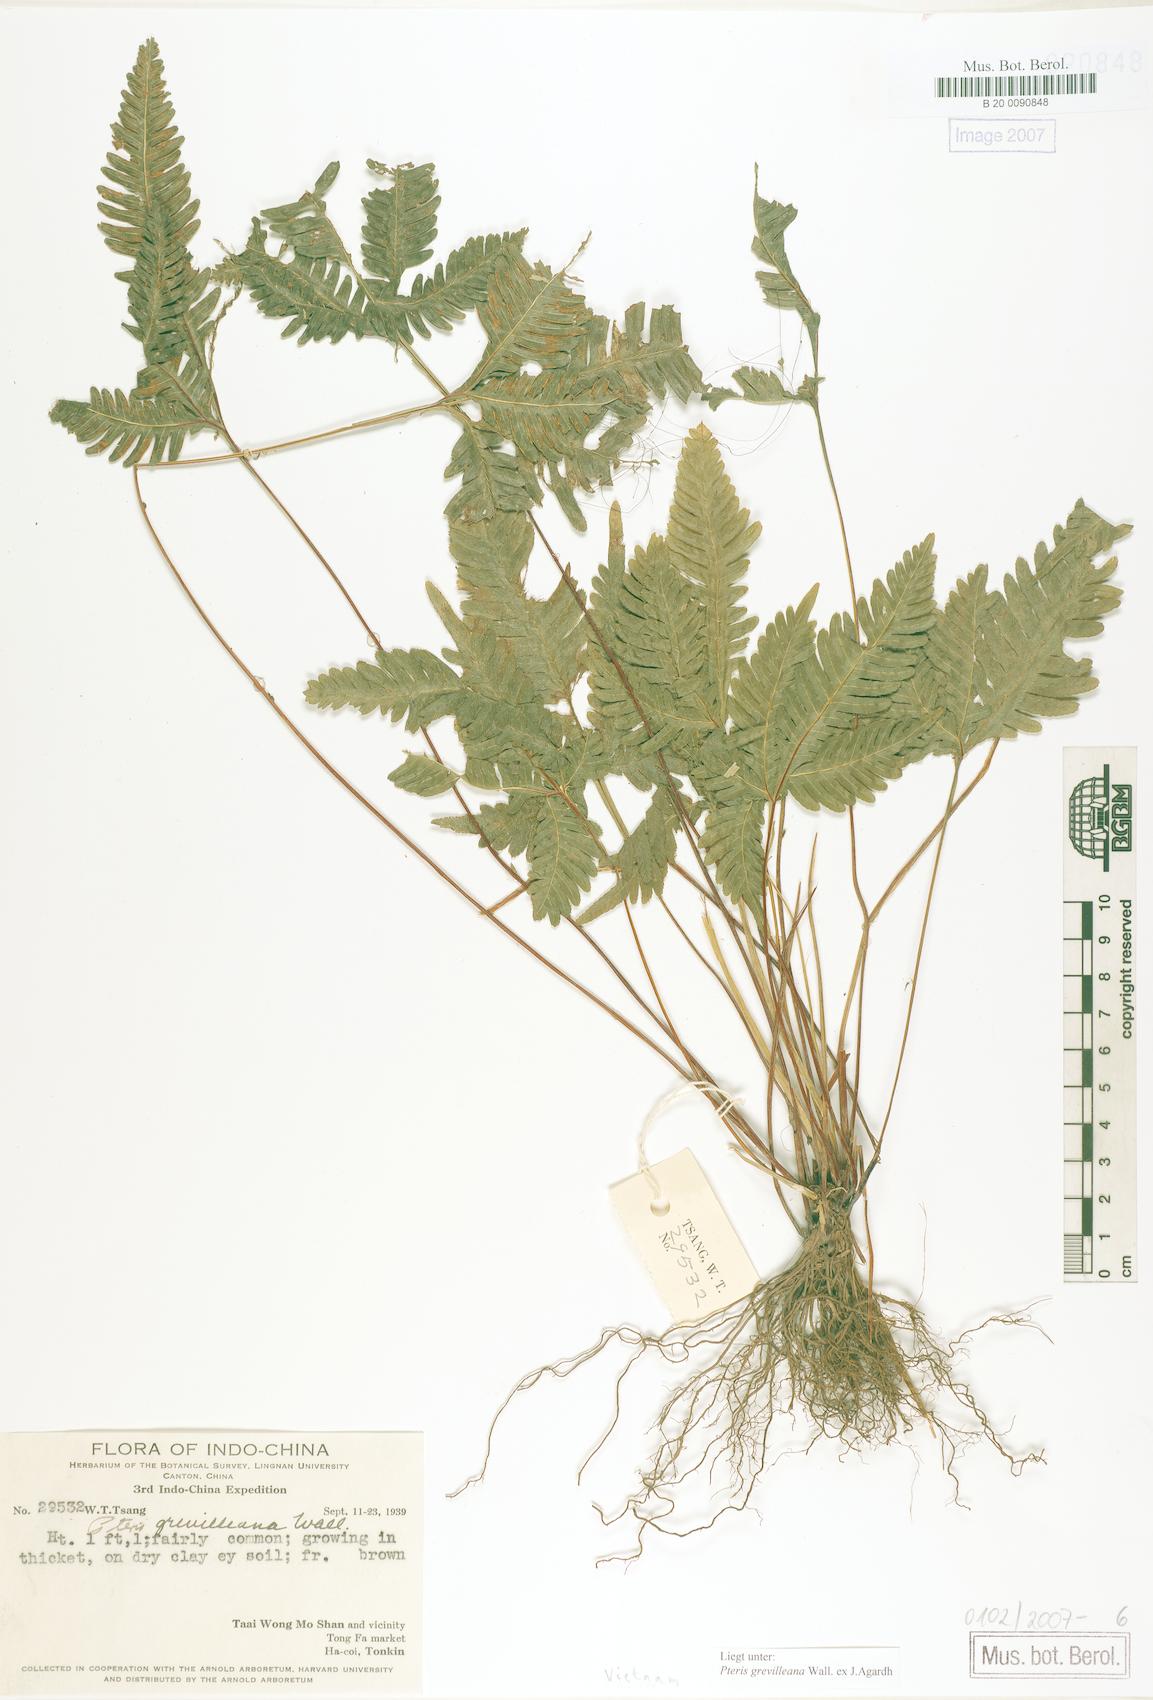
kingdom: Plantae
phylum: Tracheophyta
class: Polypodiopsida
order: Polypodiales
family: Pteridaceae
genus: Pteris
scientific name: Pteris grevilleana
